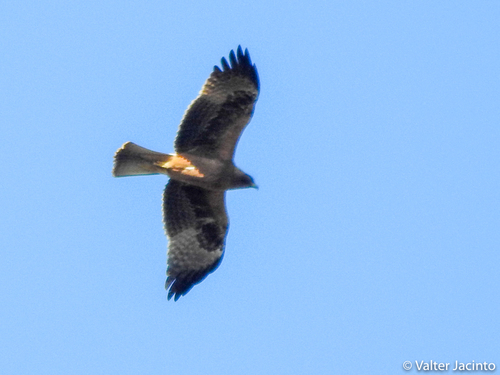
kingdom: Animalia
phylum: Chordata
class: Aves
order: Accipitriformes
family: Accipitridae
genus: Hieraaetus
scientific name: Hieraaetus pennatus
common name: Booted eagle
